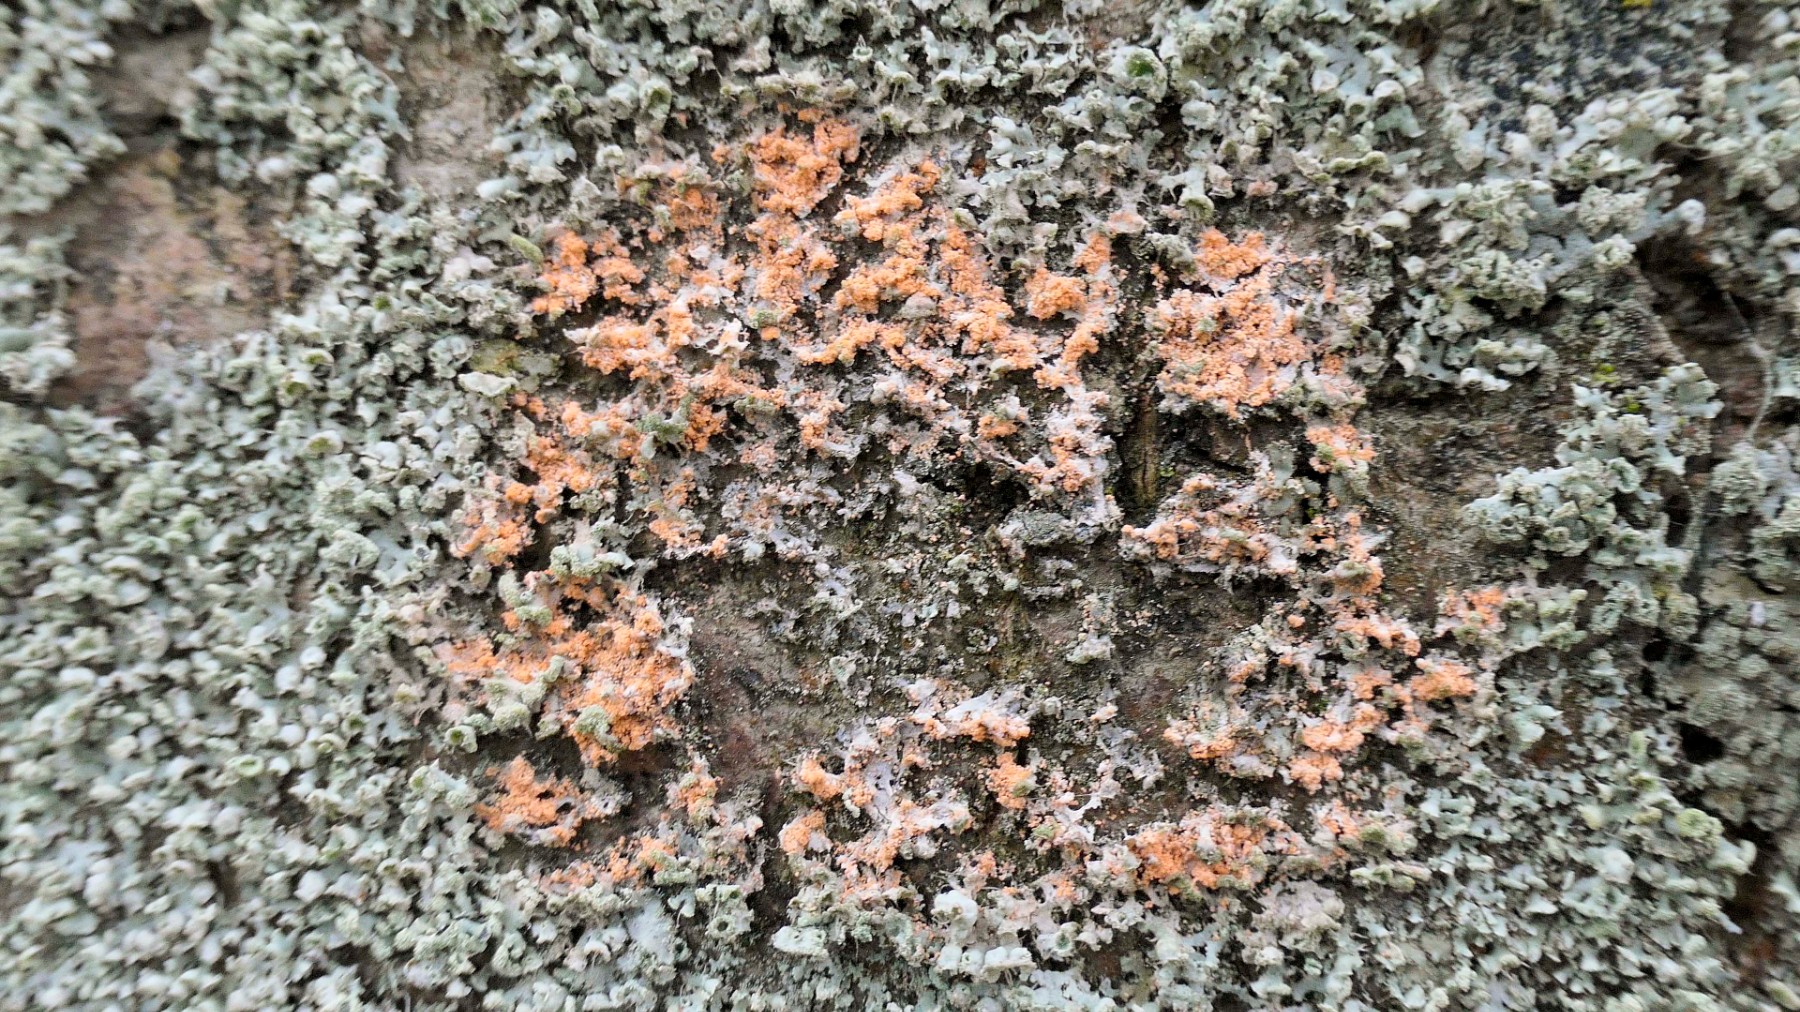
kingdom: Fungi
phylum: Basidiomycota
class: Agaricomycetes
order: Corticiales
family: Corticiaceae
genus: Erythricium
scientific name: Erythricium aurantiacum
